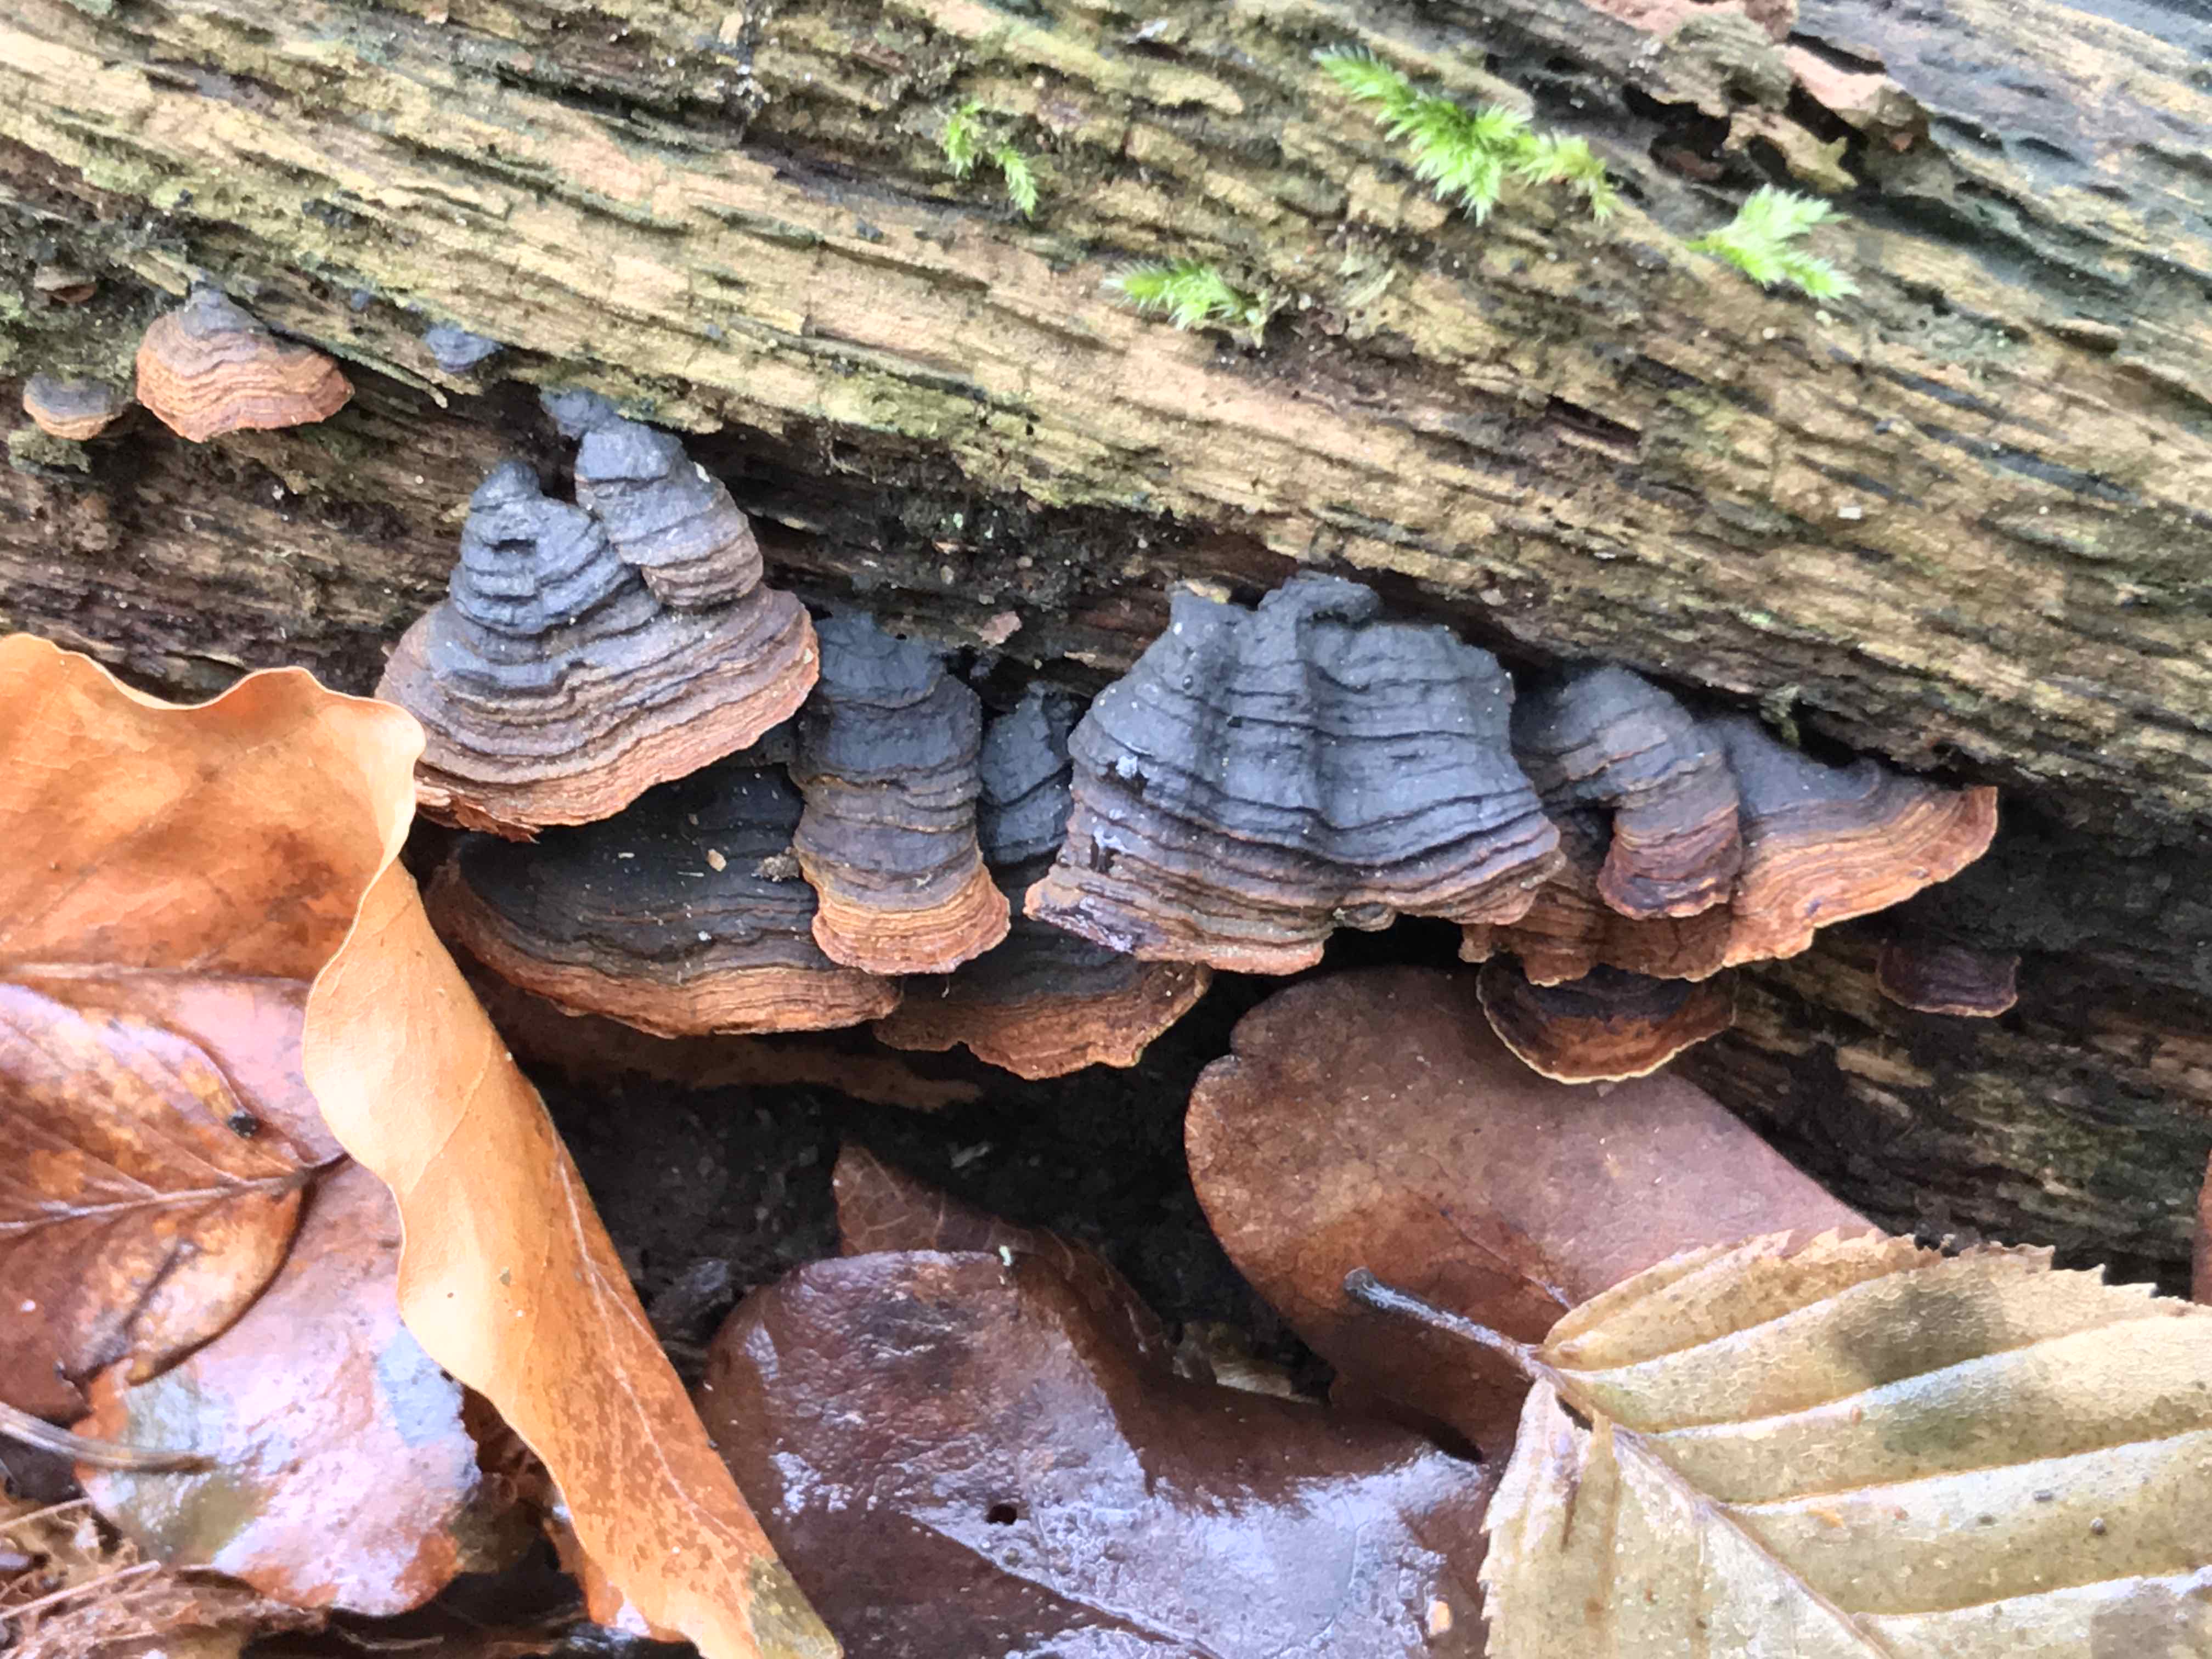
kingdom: Fungi
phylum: Basidiomycota
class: Agaricomycetes
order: Hymenochaetales
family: Hymenochaetaceae
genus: Hymenochaete
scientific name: Hymenochaete rubiginosa
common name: stiv ruslædersvamp
